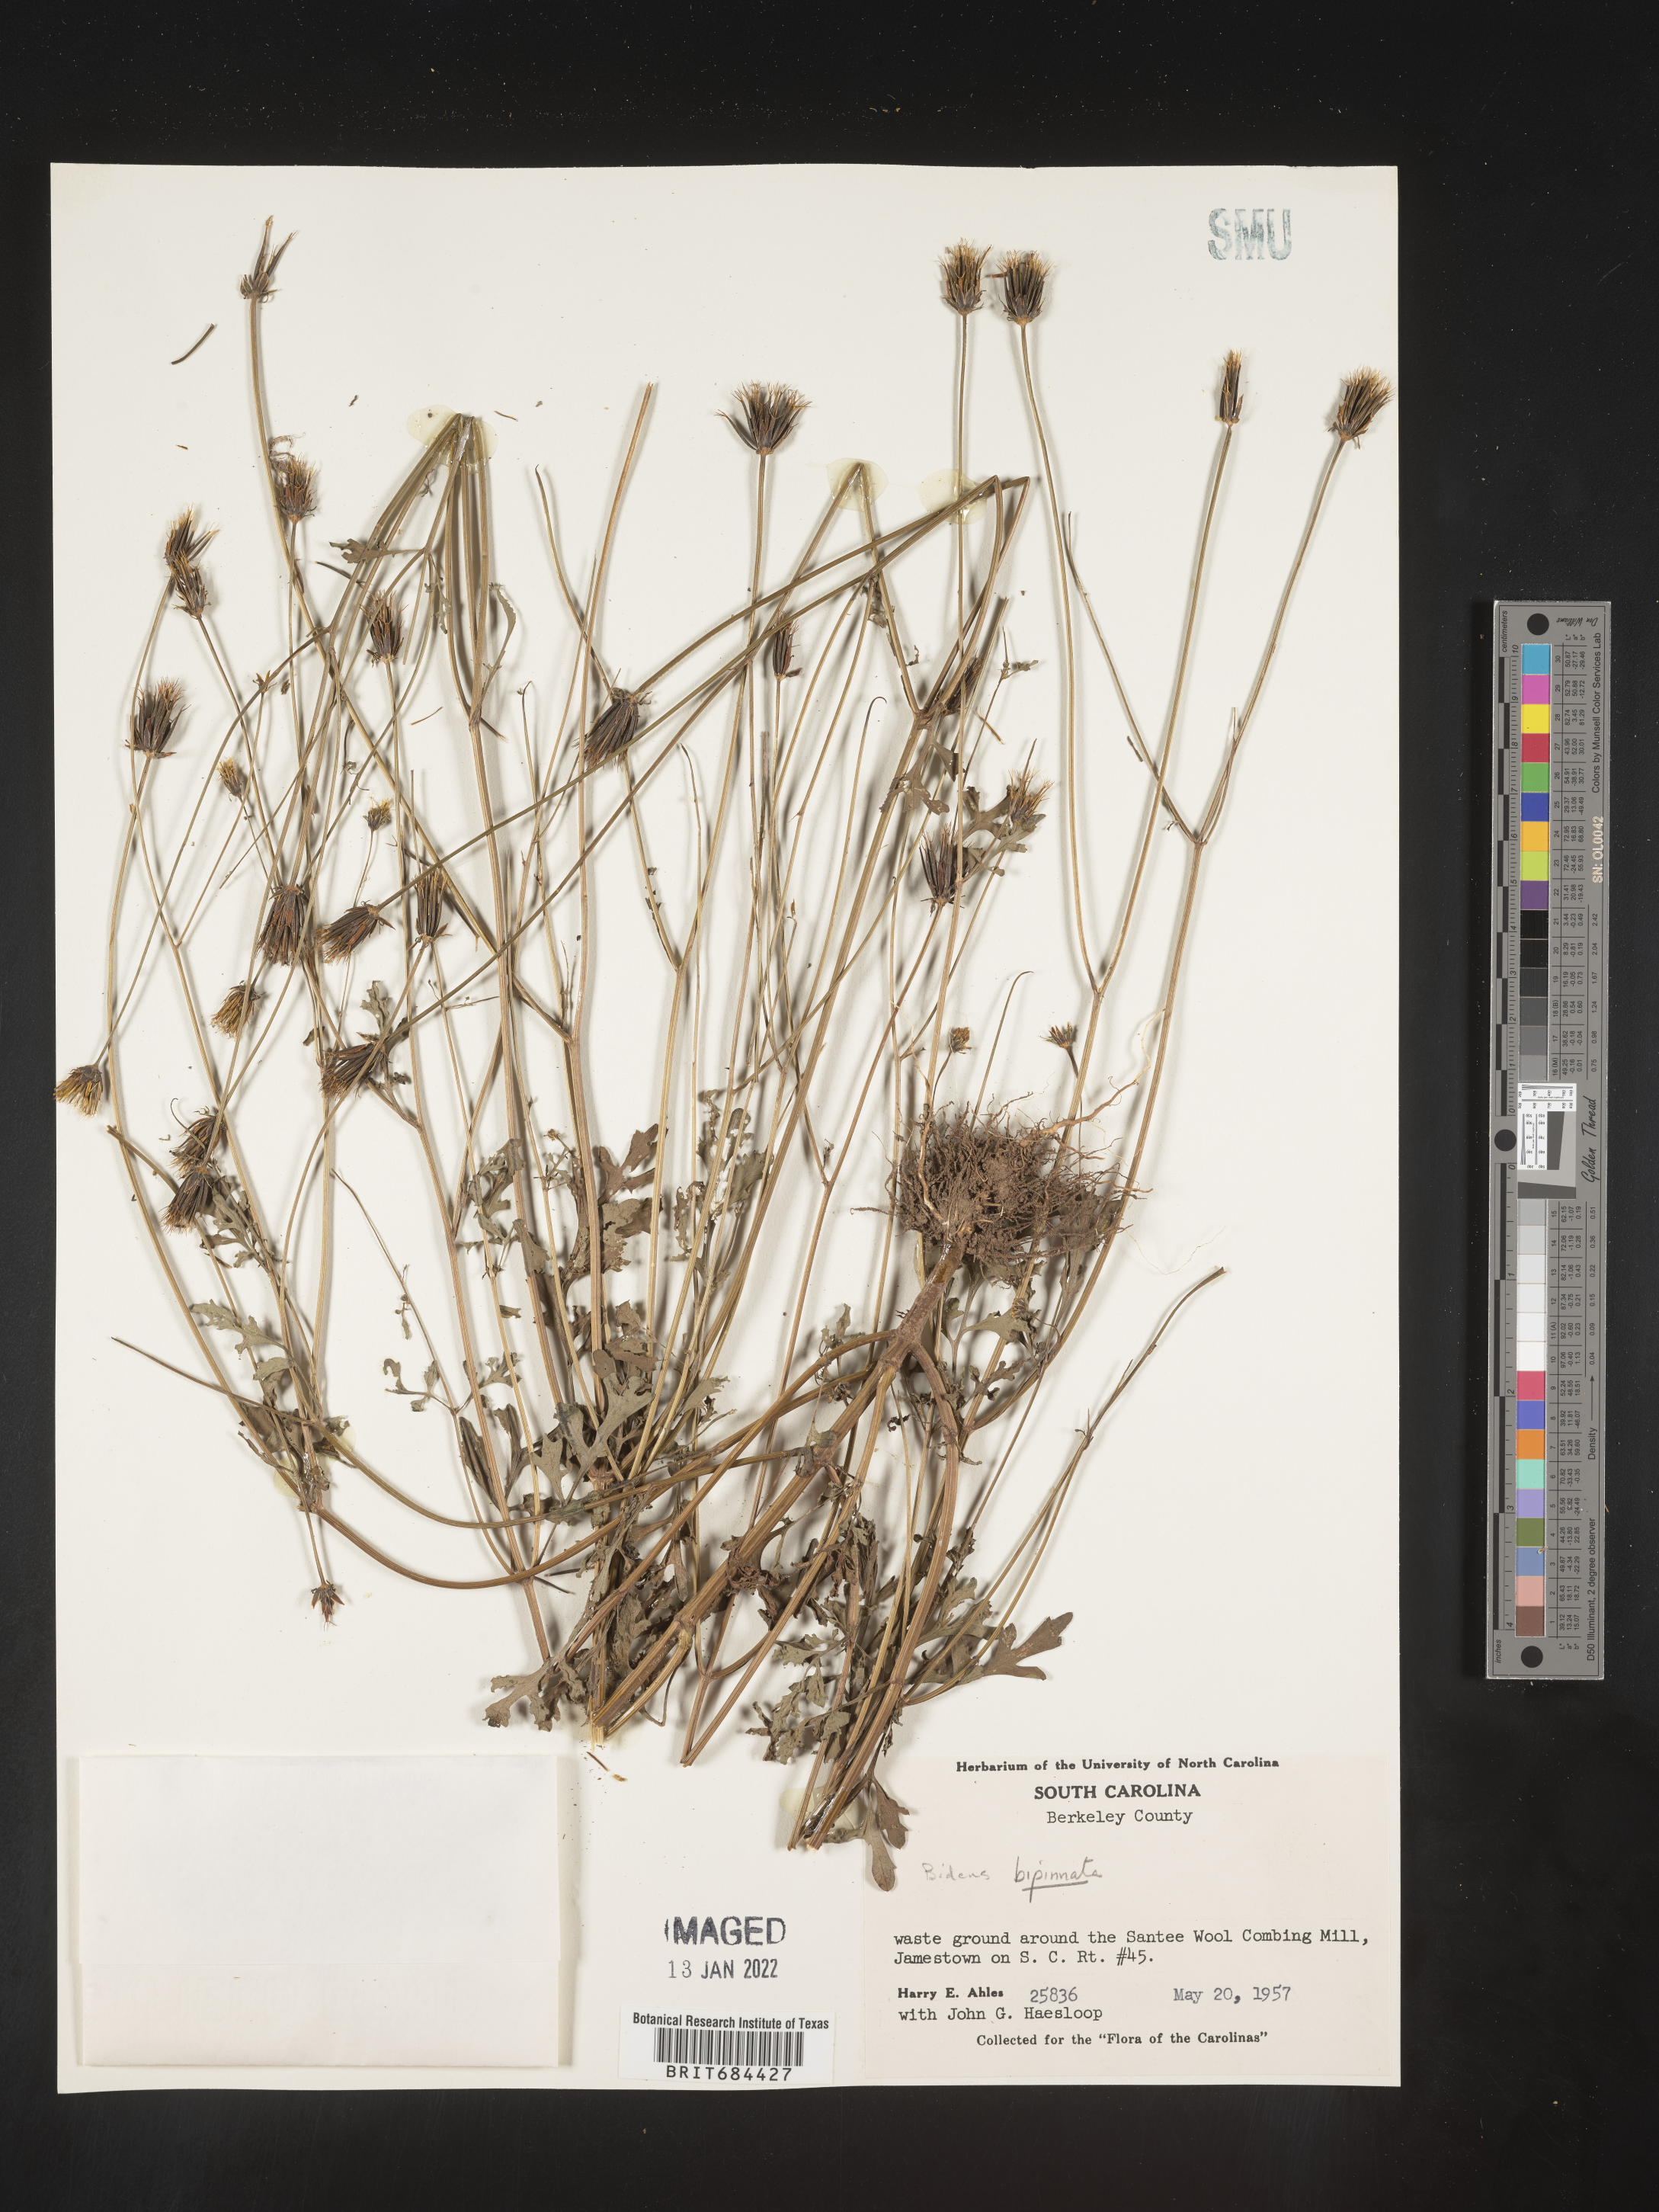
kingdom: Plantae
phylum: Tracheophyta
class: Magnoliopsida
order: Asterales
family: Asteraceae
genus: Bidens
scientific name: Bidens bipinnata
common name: Spanish-needles
